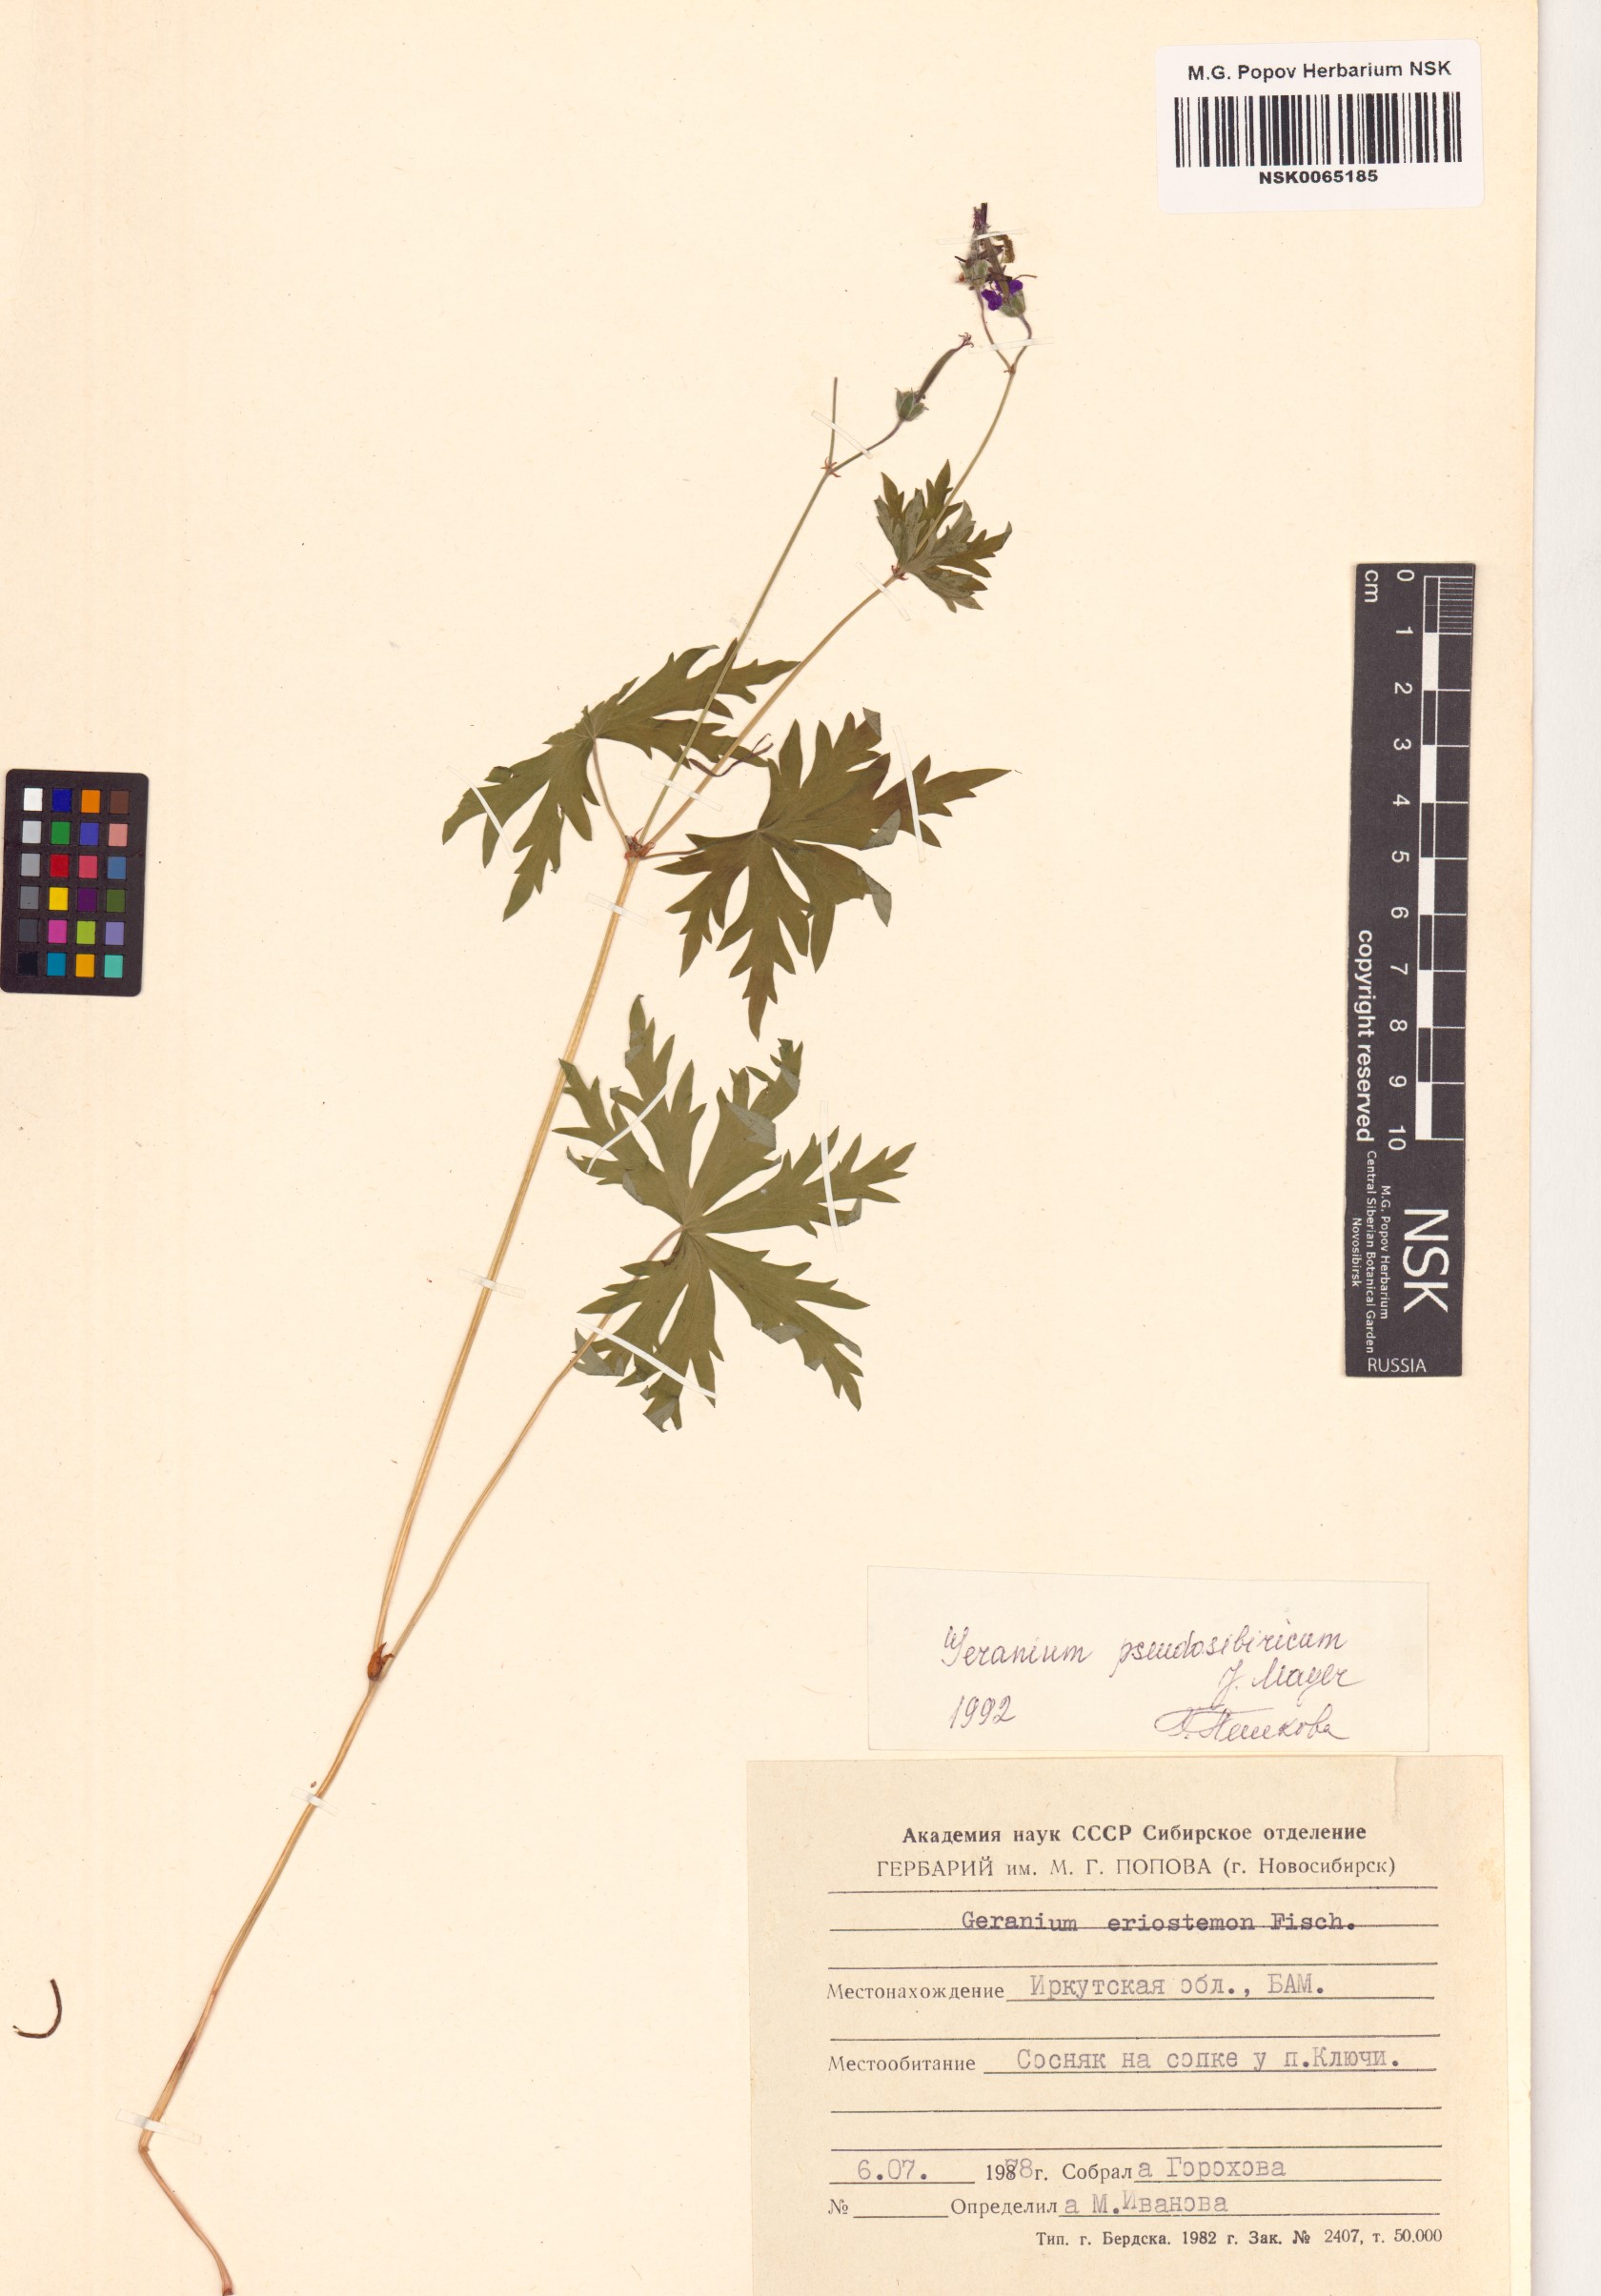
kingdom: Plantae
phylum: Tracheophyta
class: Magnoliopsida
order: Geraniales
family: Geraniaceae
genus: Geranium
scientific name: Geranium pseudosibiricum
